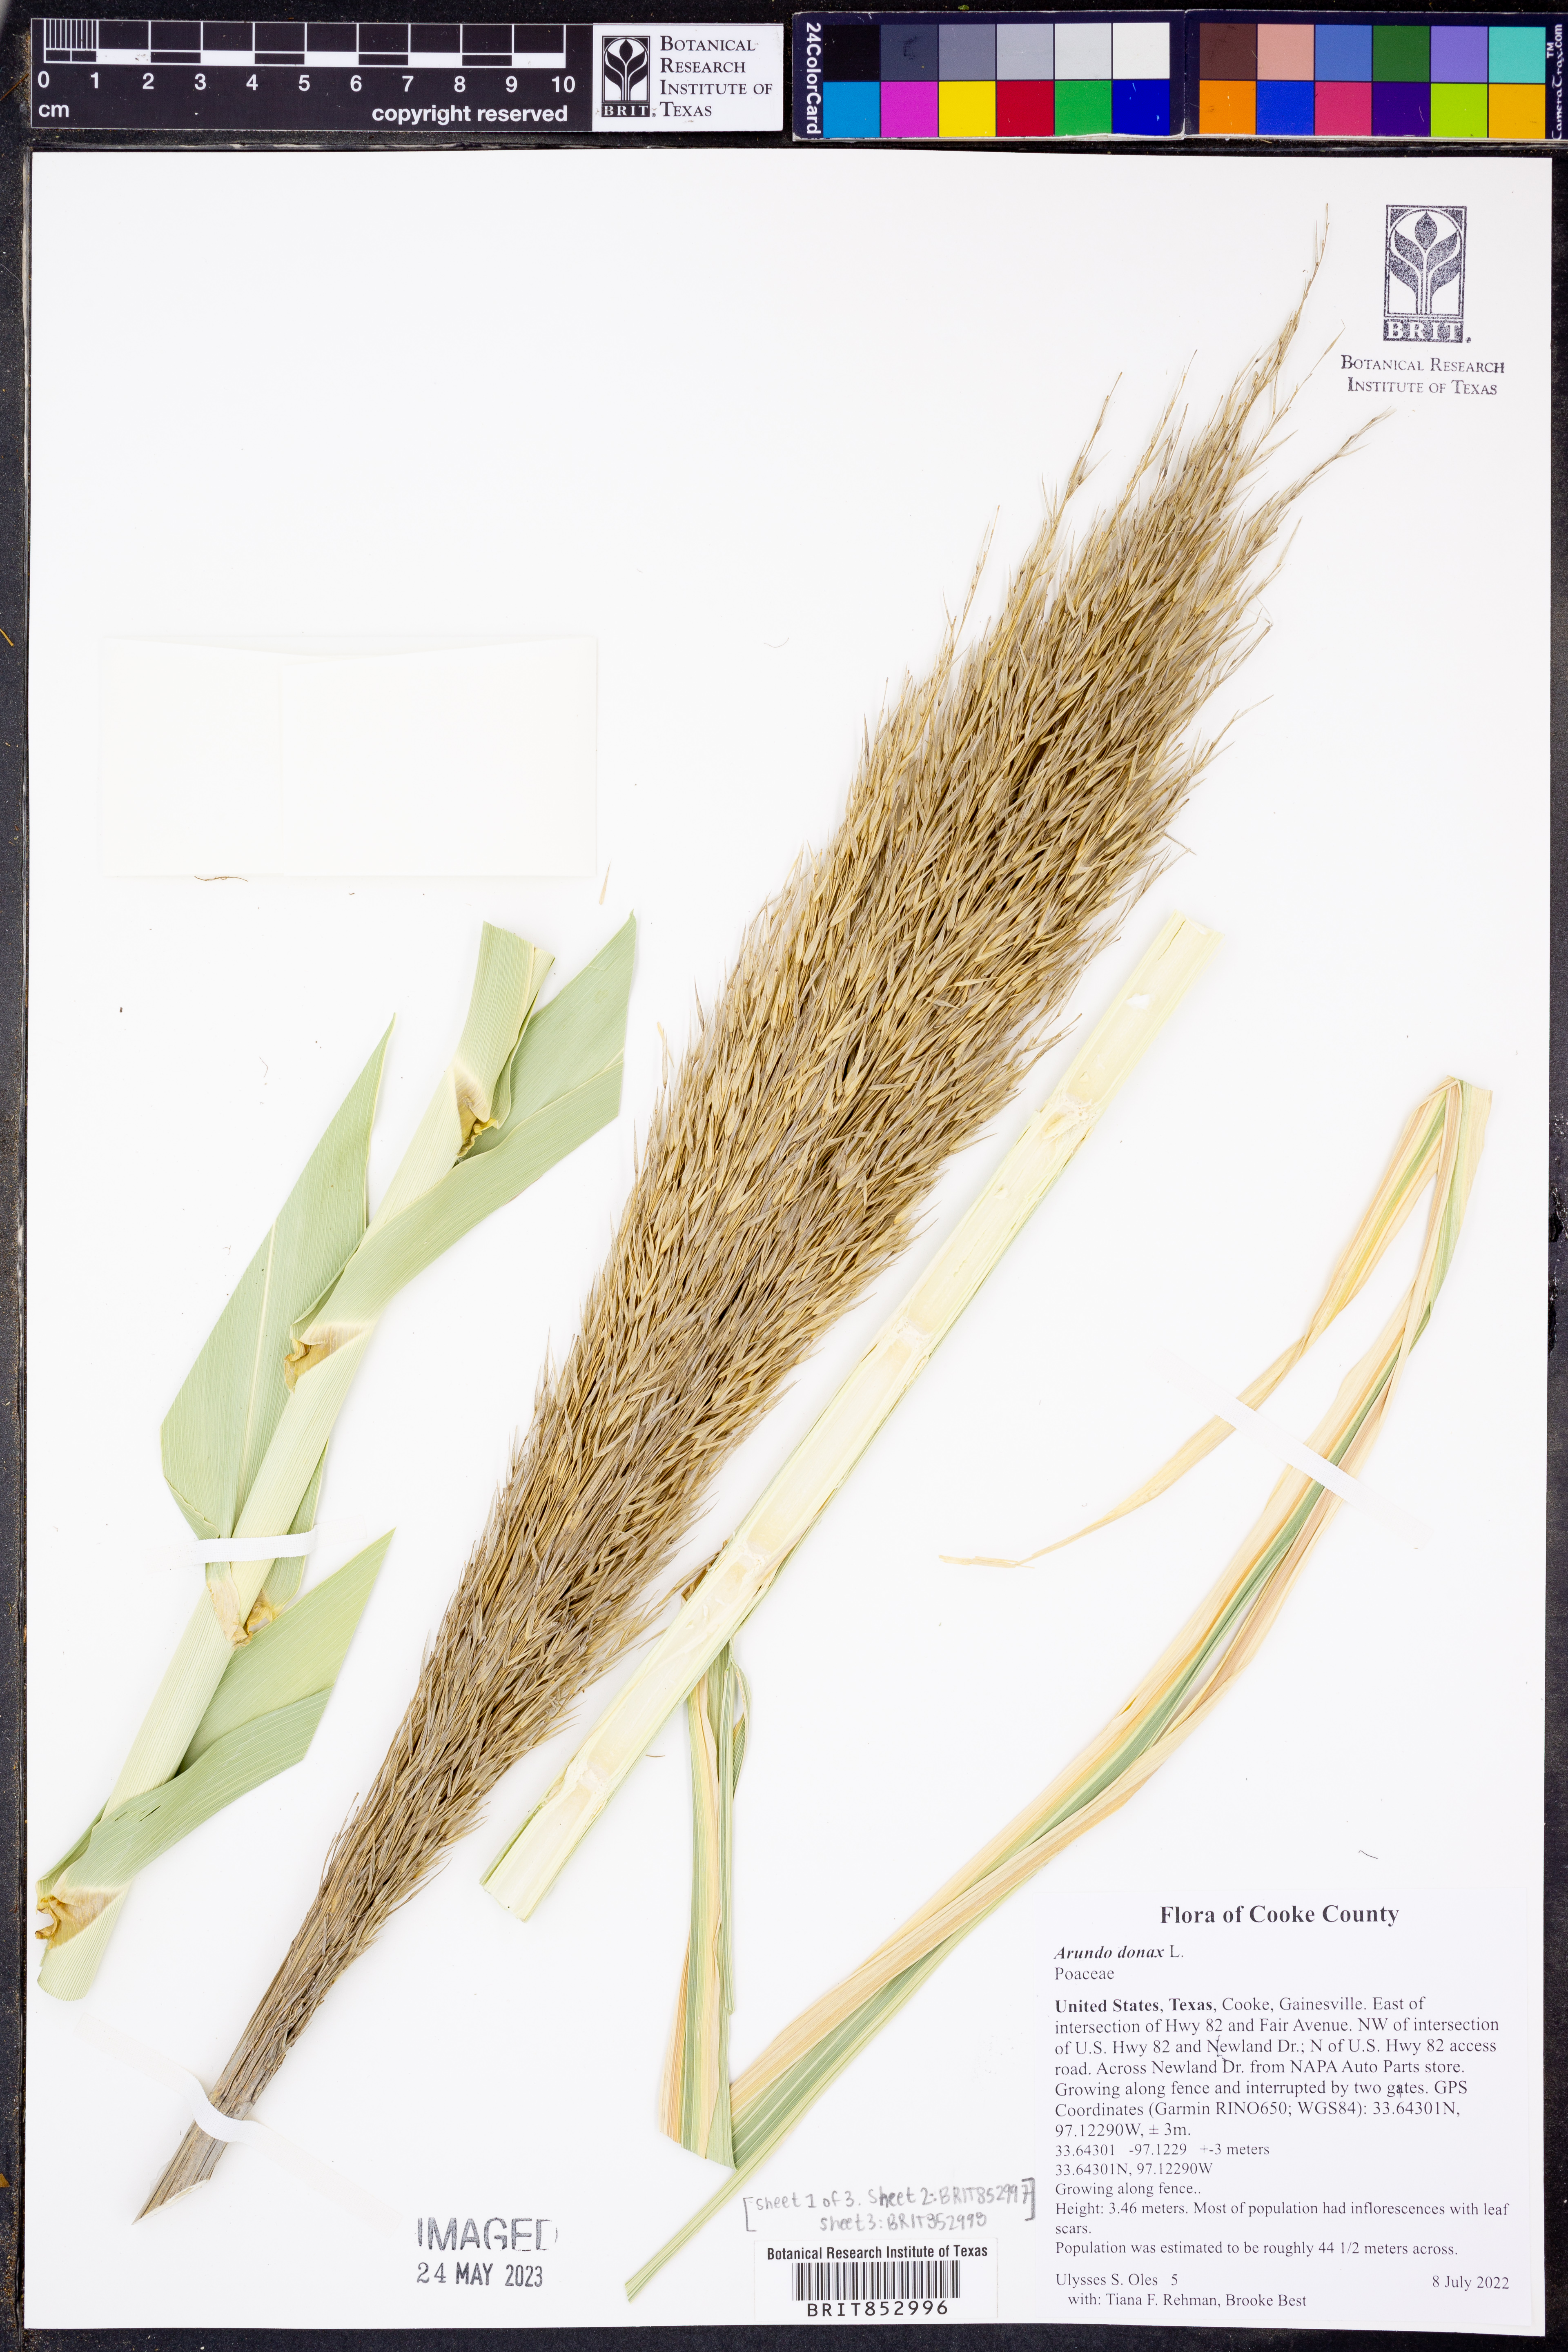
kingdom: Plantae
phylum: Tracheophyta
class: Liliopsida
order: Poales
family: Poaceae
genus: Arundo
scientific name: Arundo donax
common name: Giant reed
